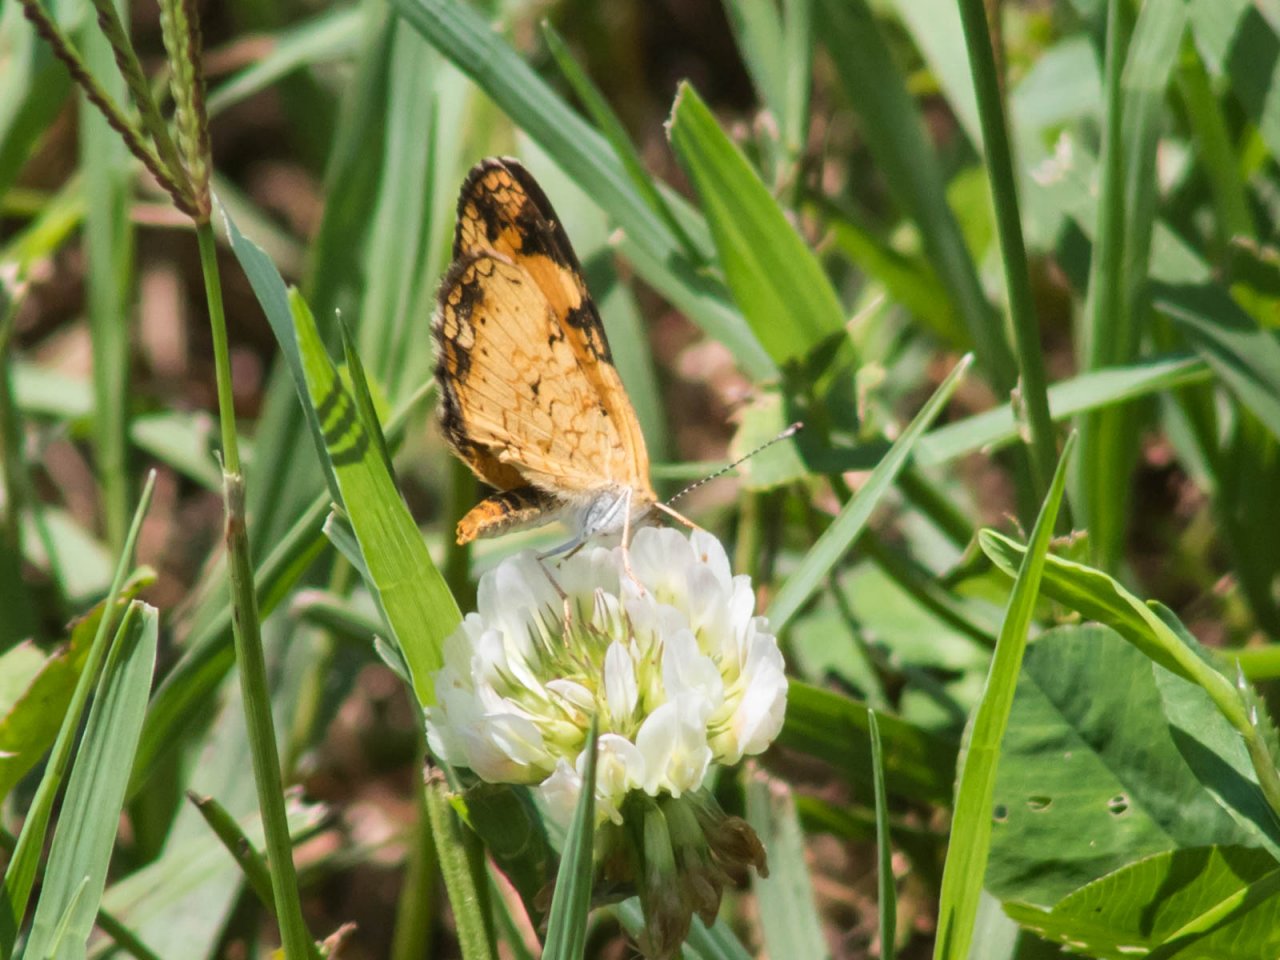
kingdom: Animalia
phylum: Arthropoda
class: Insecta
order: Lepidoptera
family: Nymphalidae
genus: Phyciodes
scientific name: Phyciodes tharos
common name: Pearl Crescent
